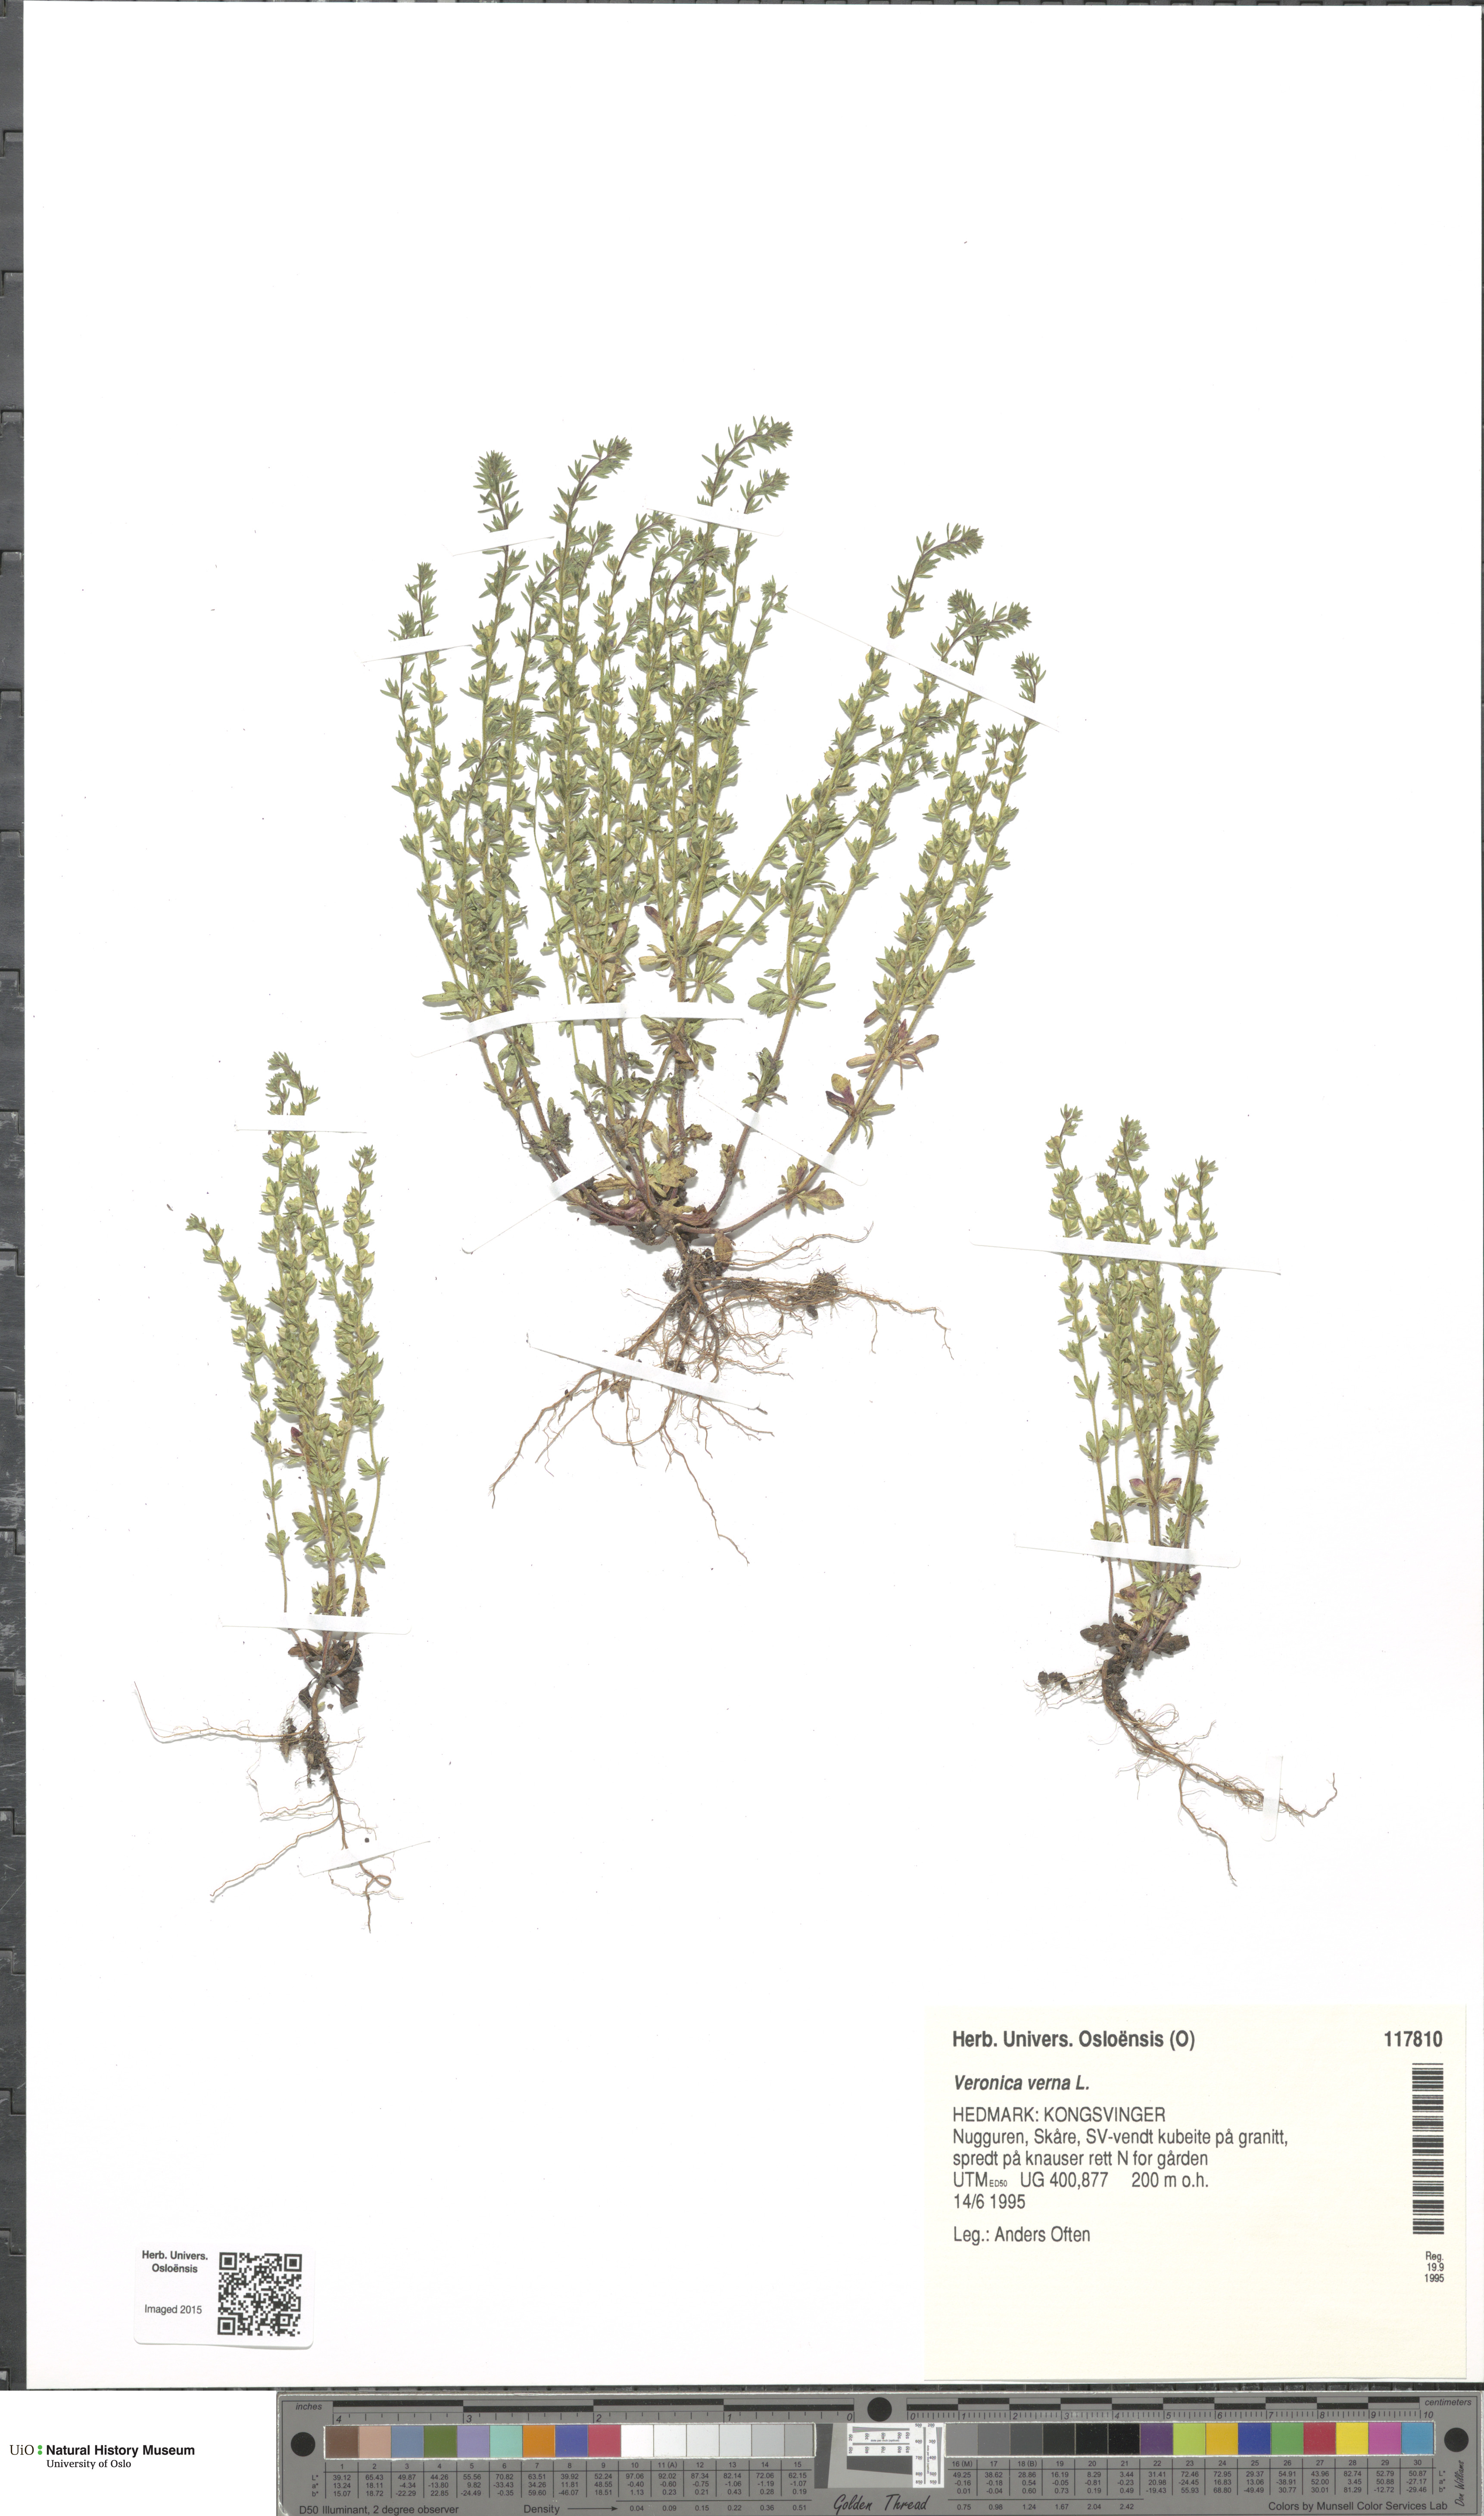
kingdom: Plantae
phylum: Tracheophyta
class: Magnoliopsida
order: Lamiales
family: Plantaginaceae
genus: Veronica
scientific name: Veronica verna
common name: Spring speedwell
